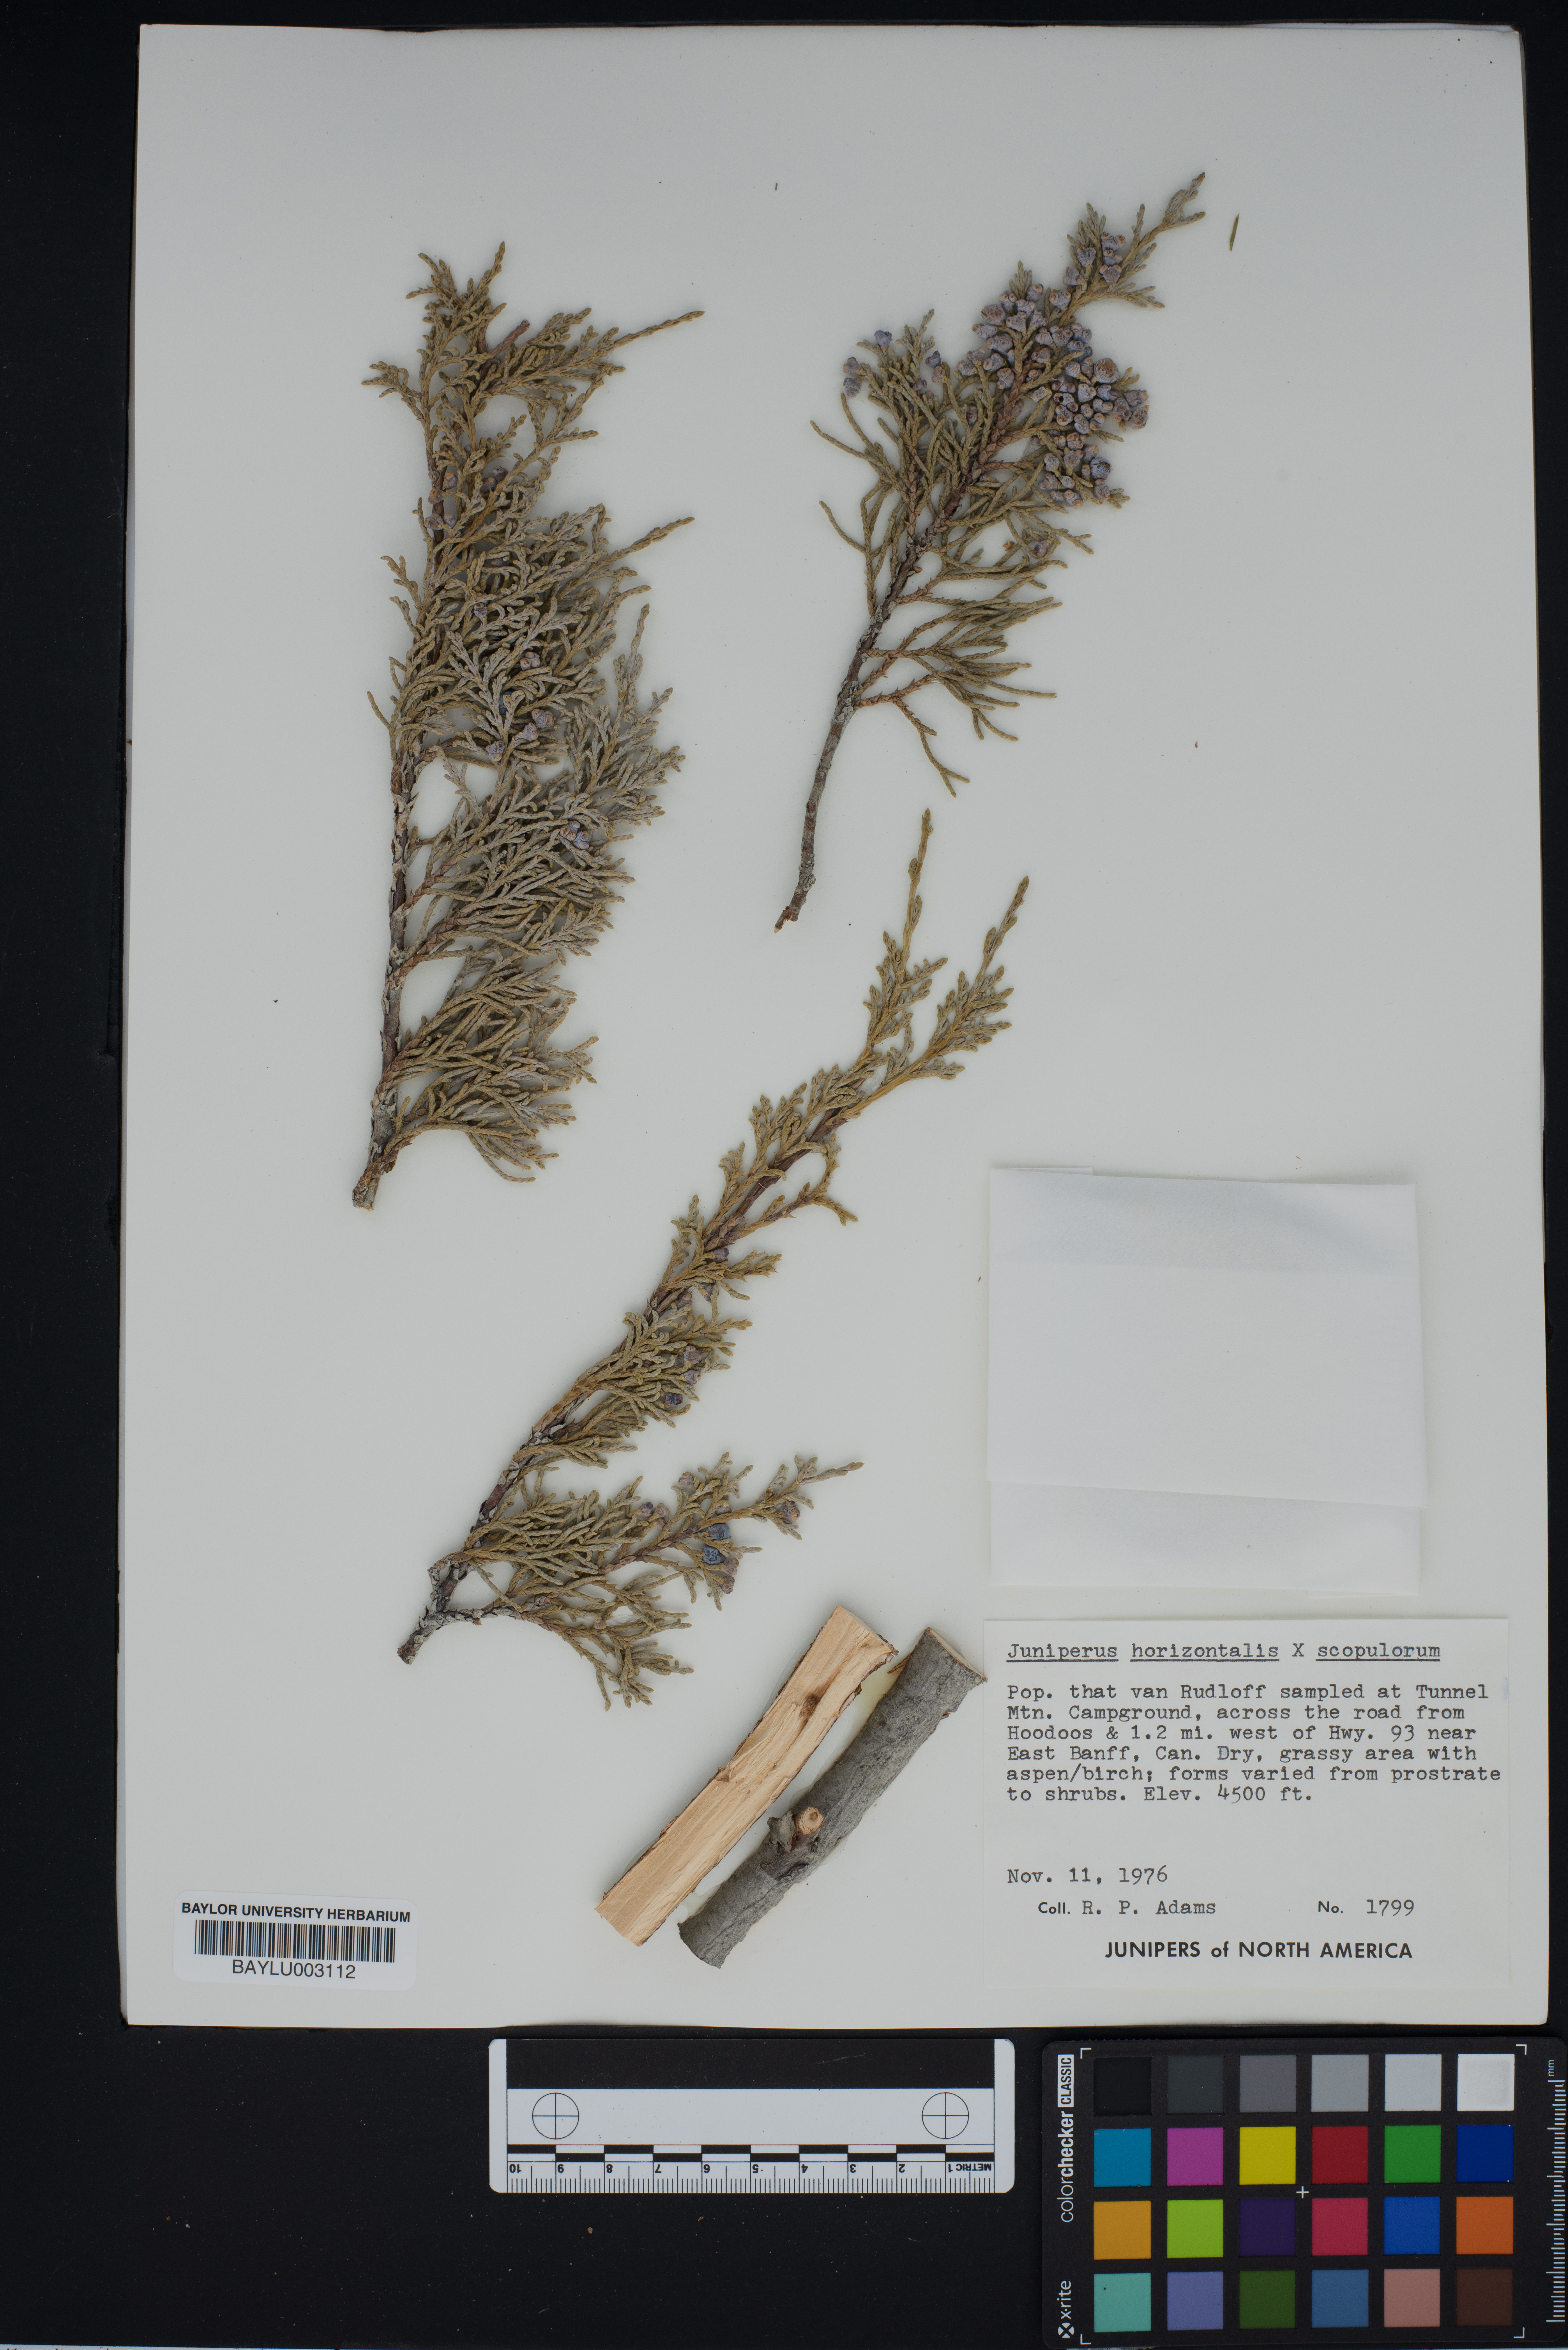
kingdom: Plantae
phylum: Tracheophyta
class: Pinopsida
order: Pinales
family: Cupressaceae
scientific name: Cupressaceae
